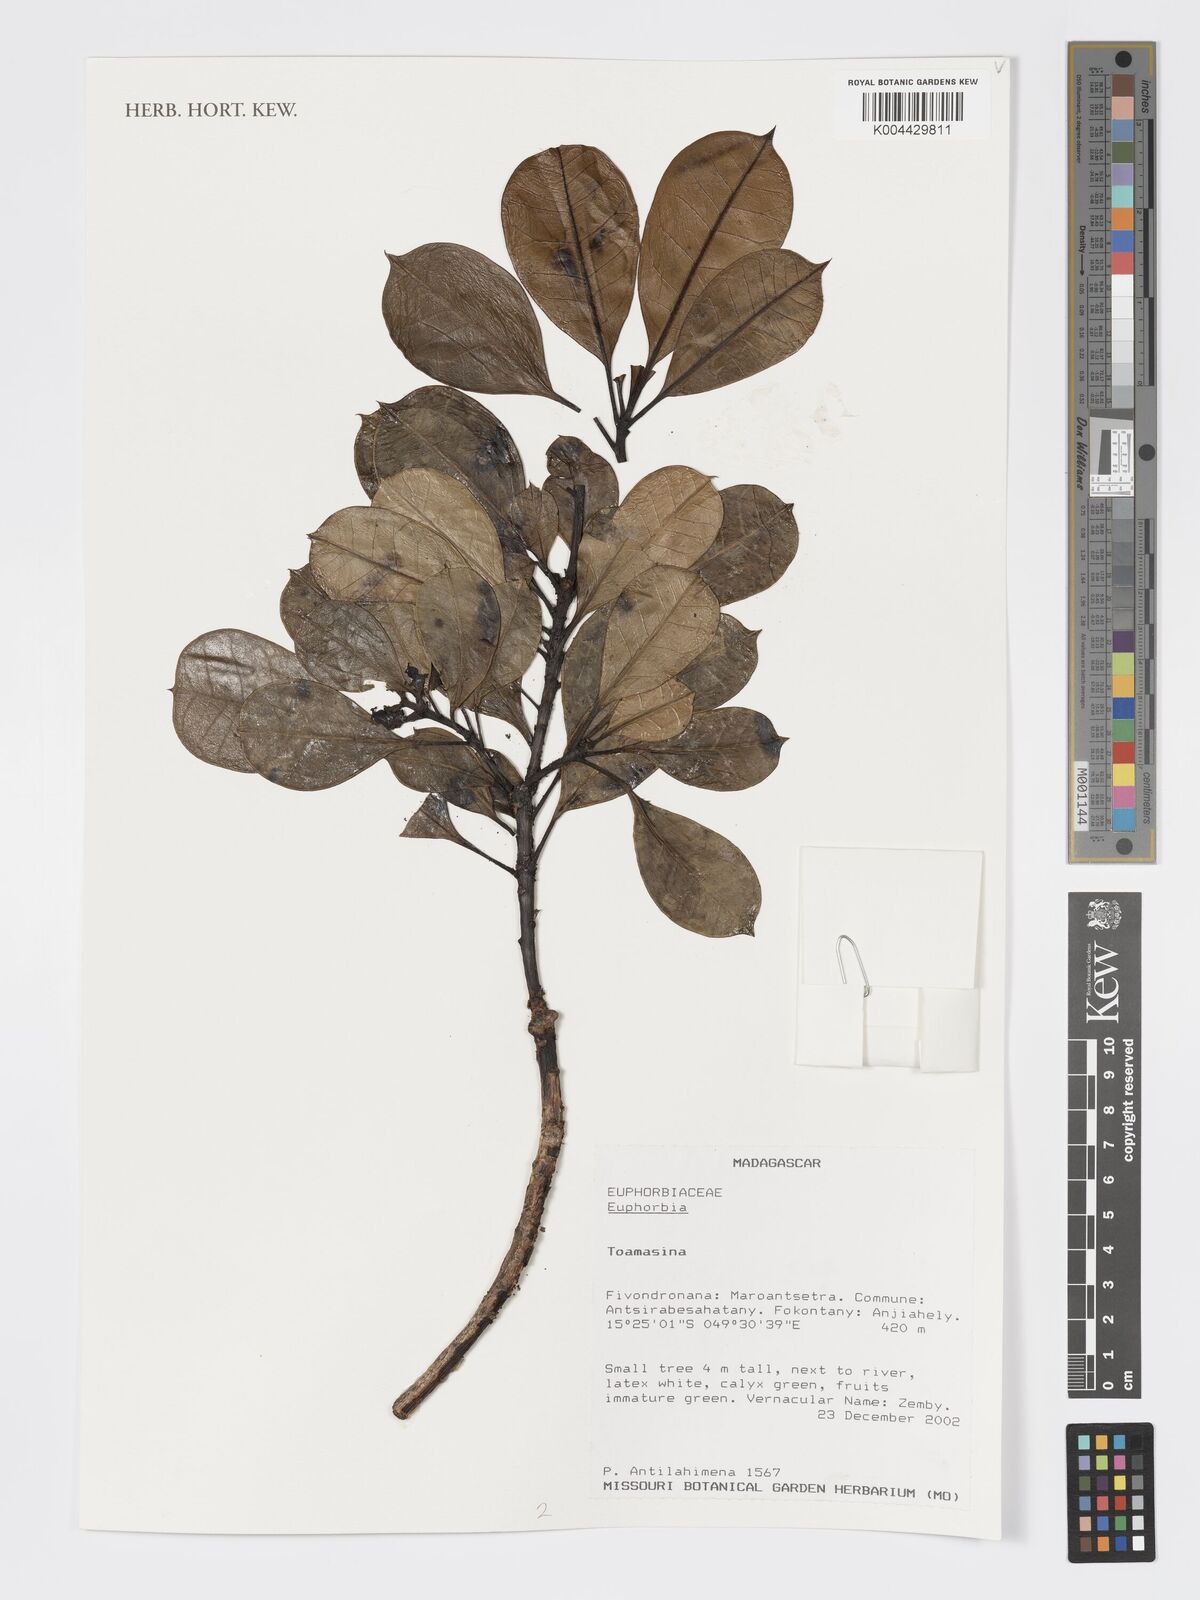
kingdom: Plantae
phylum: Tracheophyta
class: Magnoliopsida
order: Malpighiales
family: Euphorbiaceae
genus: Euphorbia
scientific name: Euphorbia tetraptera
